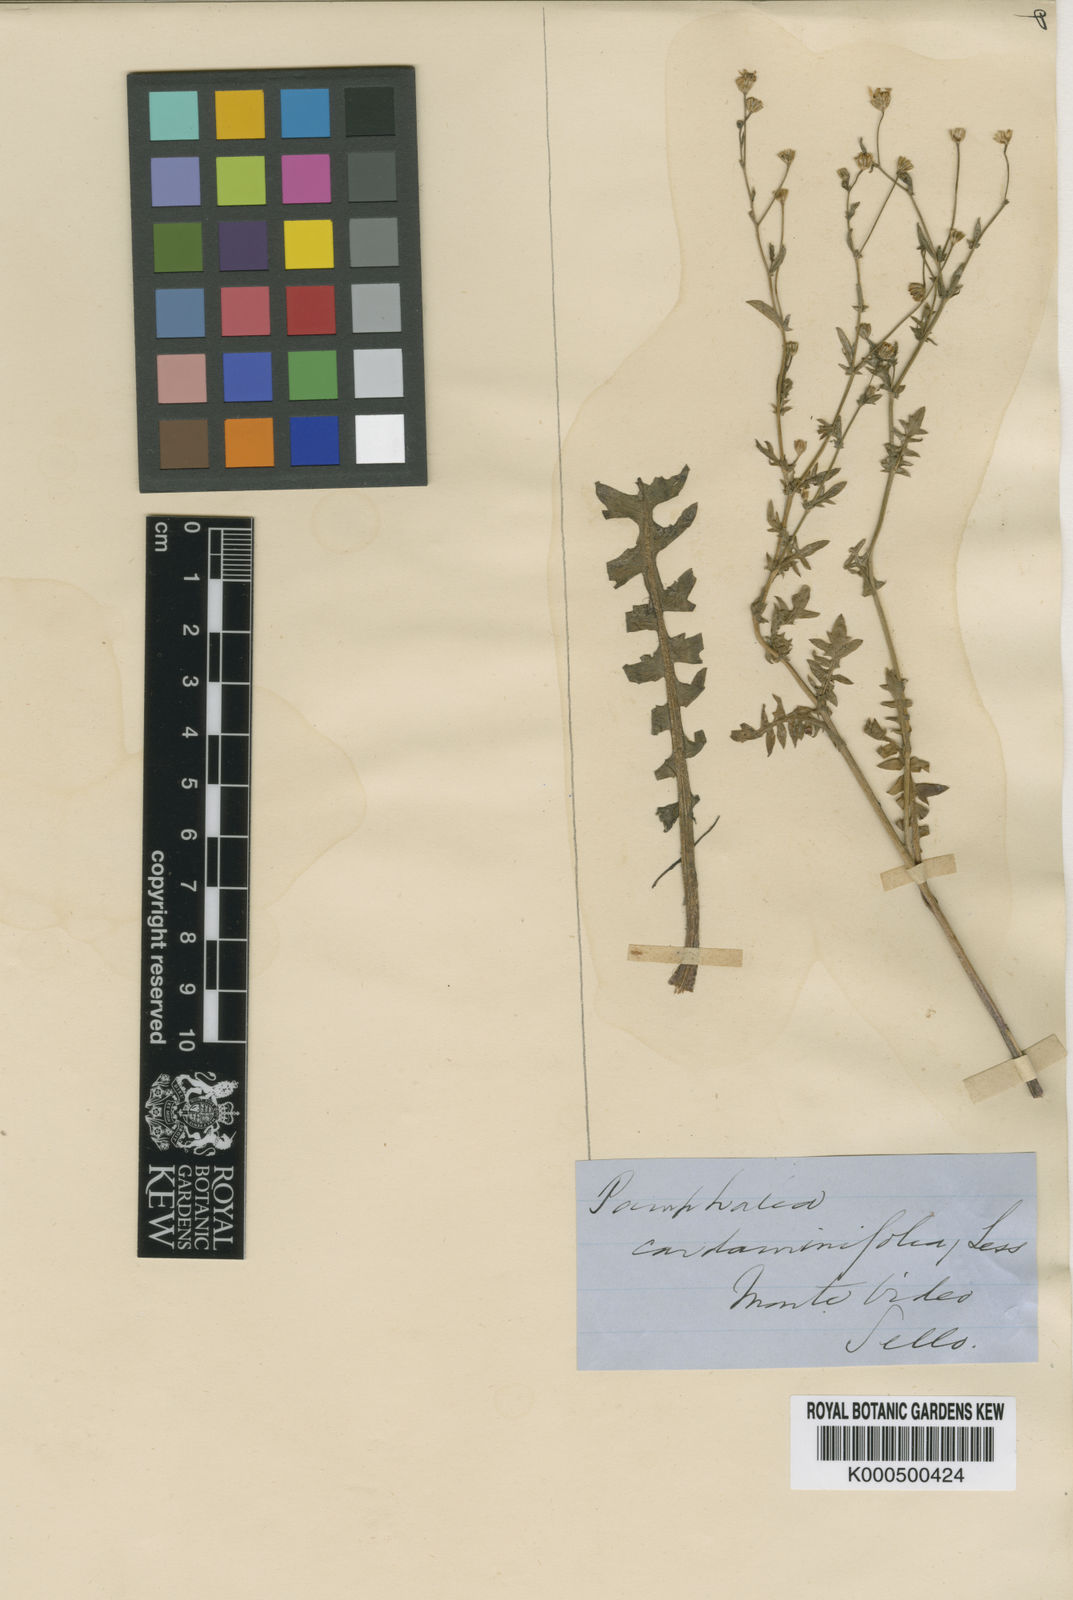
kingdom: Plantae
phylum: Tracheophyta
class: Magnoliopsida
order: Asterales
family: Asteraceae
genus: Pamphalea
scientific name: Pamphalea
